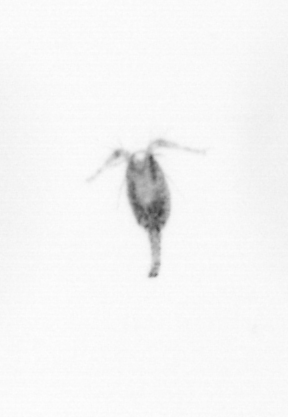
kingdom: Animalia
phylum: Arthropoda
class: Copepoda
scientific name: Copepoda
